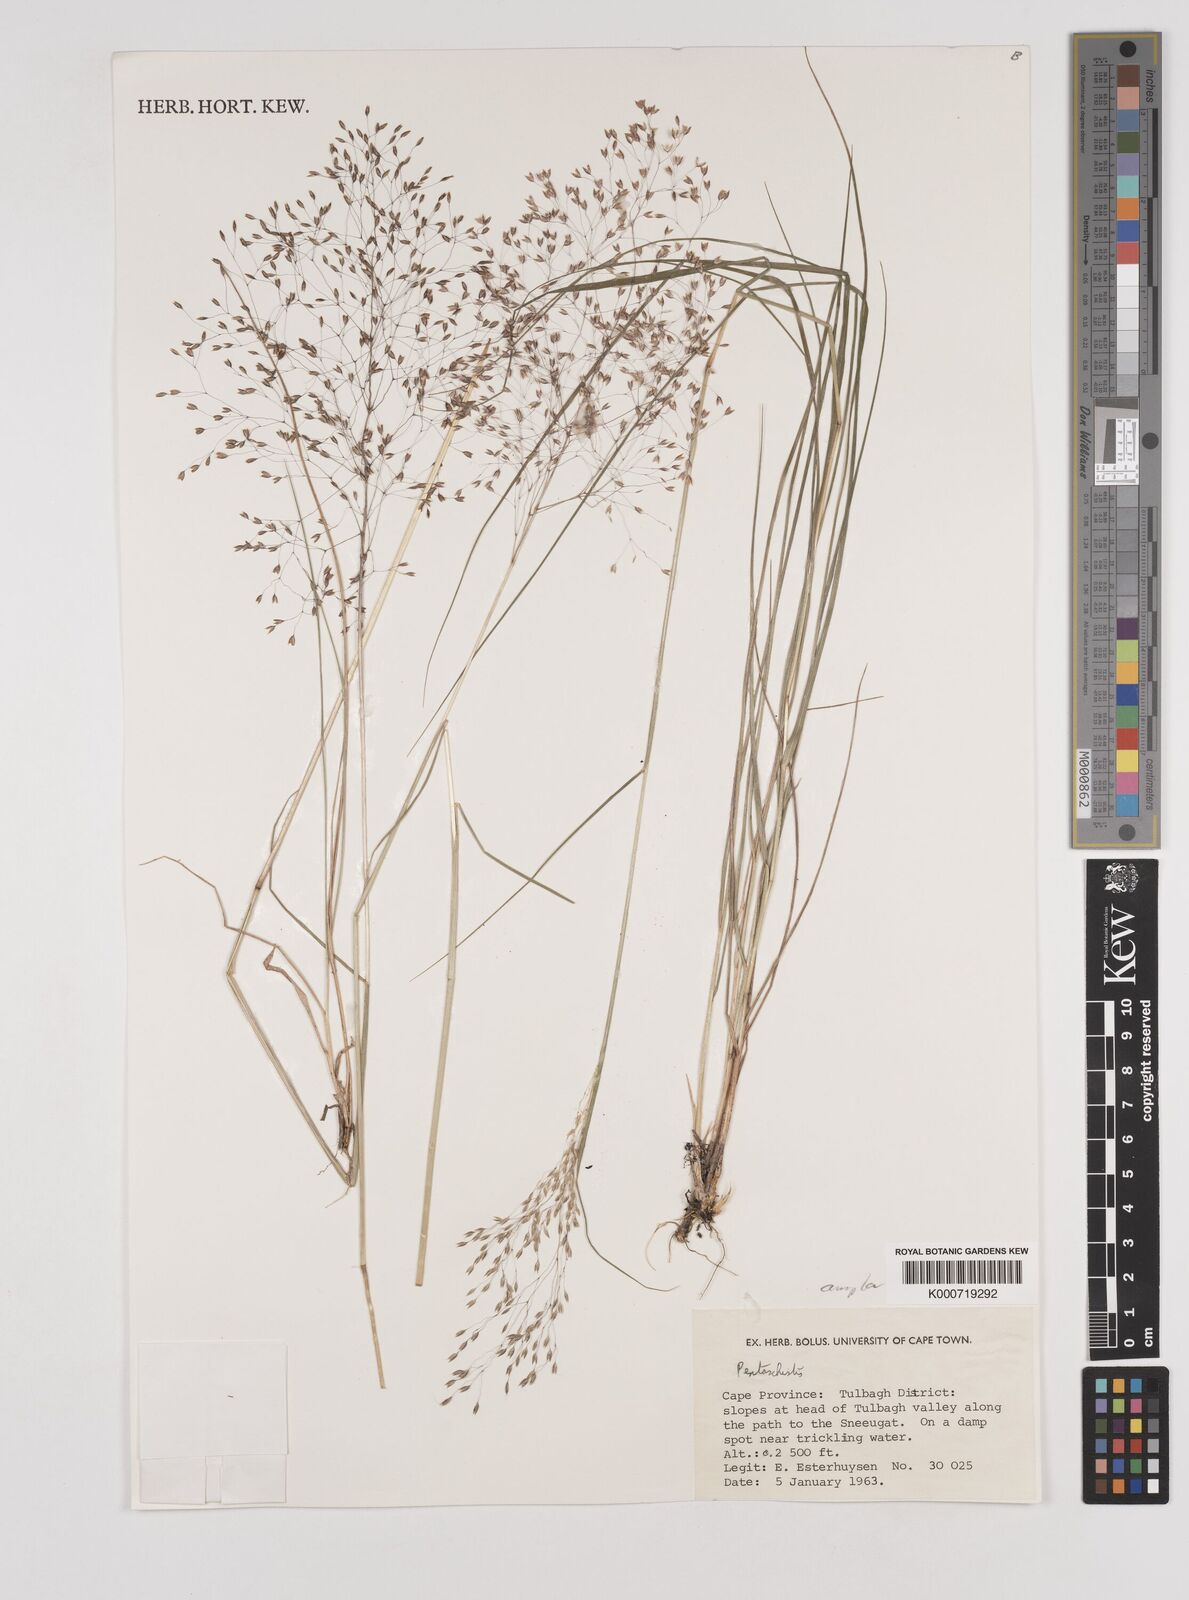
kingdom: Plantae
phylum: Tracheophyta
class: Liliopsida
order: Poales
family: Poaceae
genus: Pentameris
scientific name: Pentameris ampla
